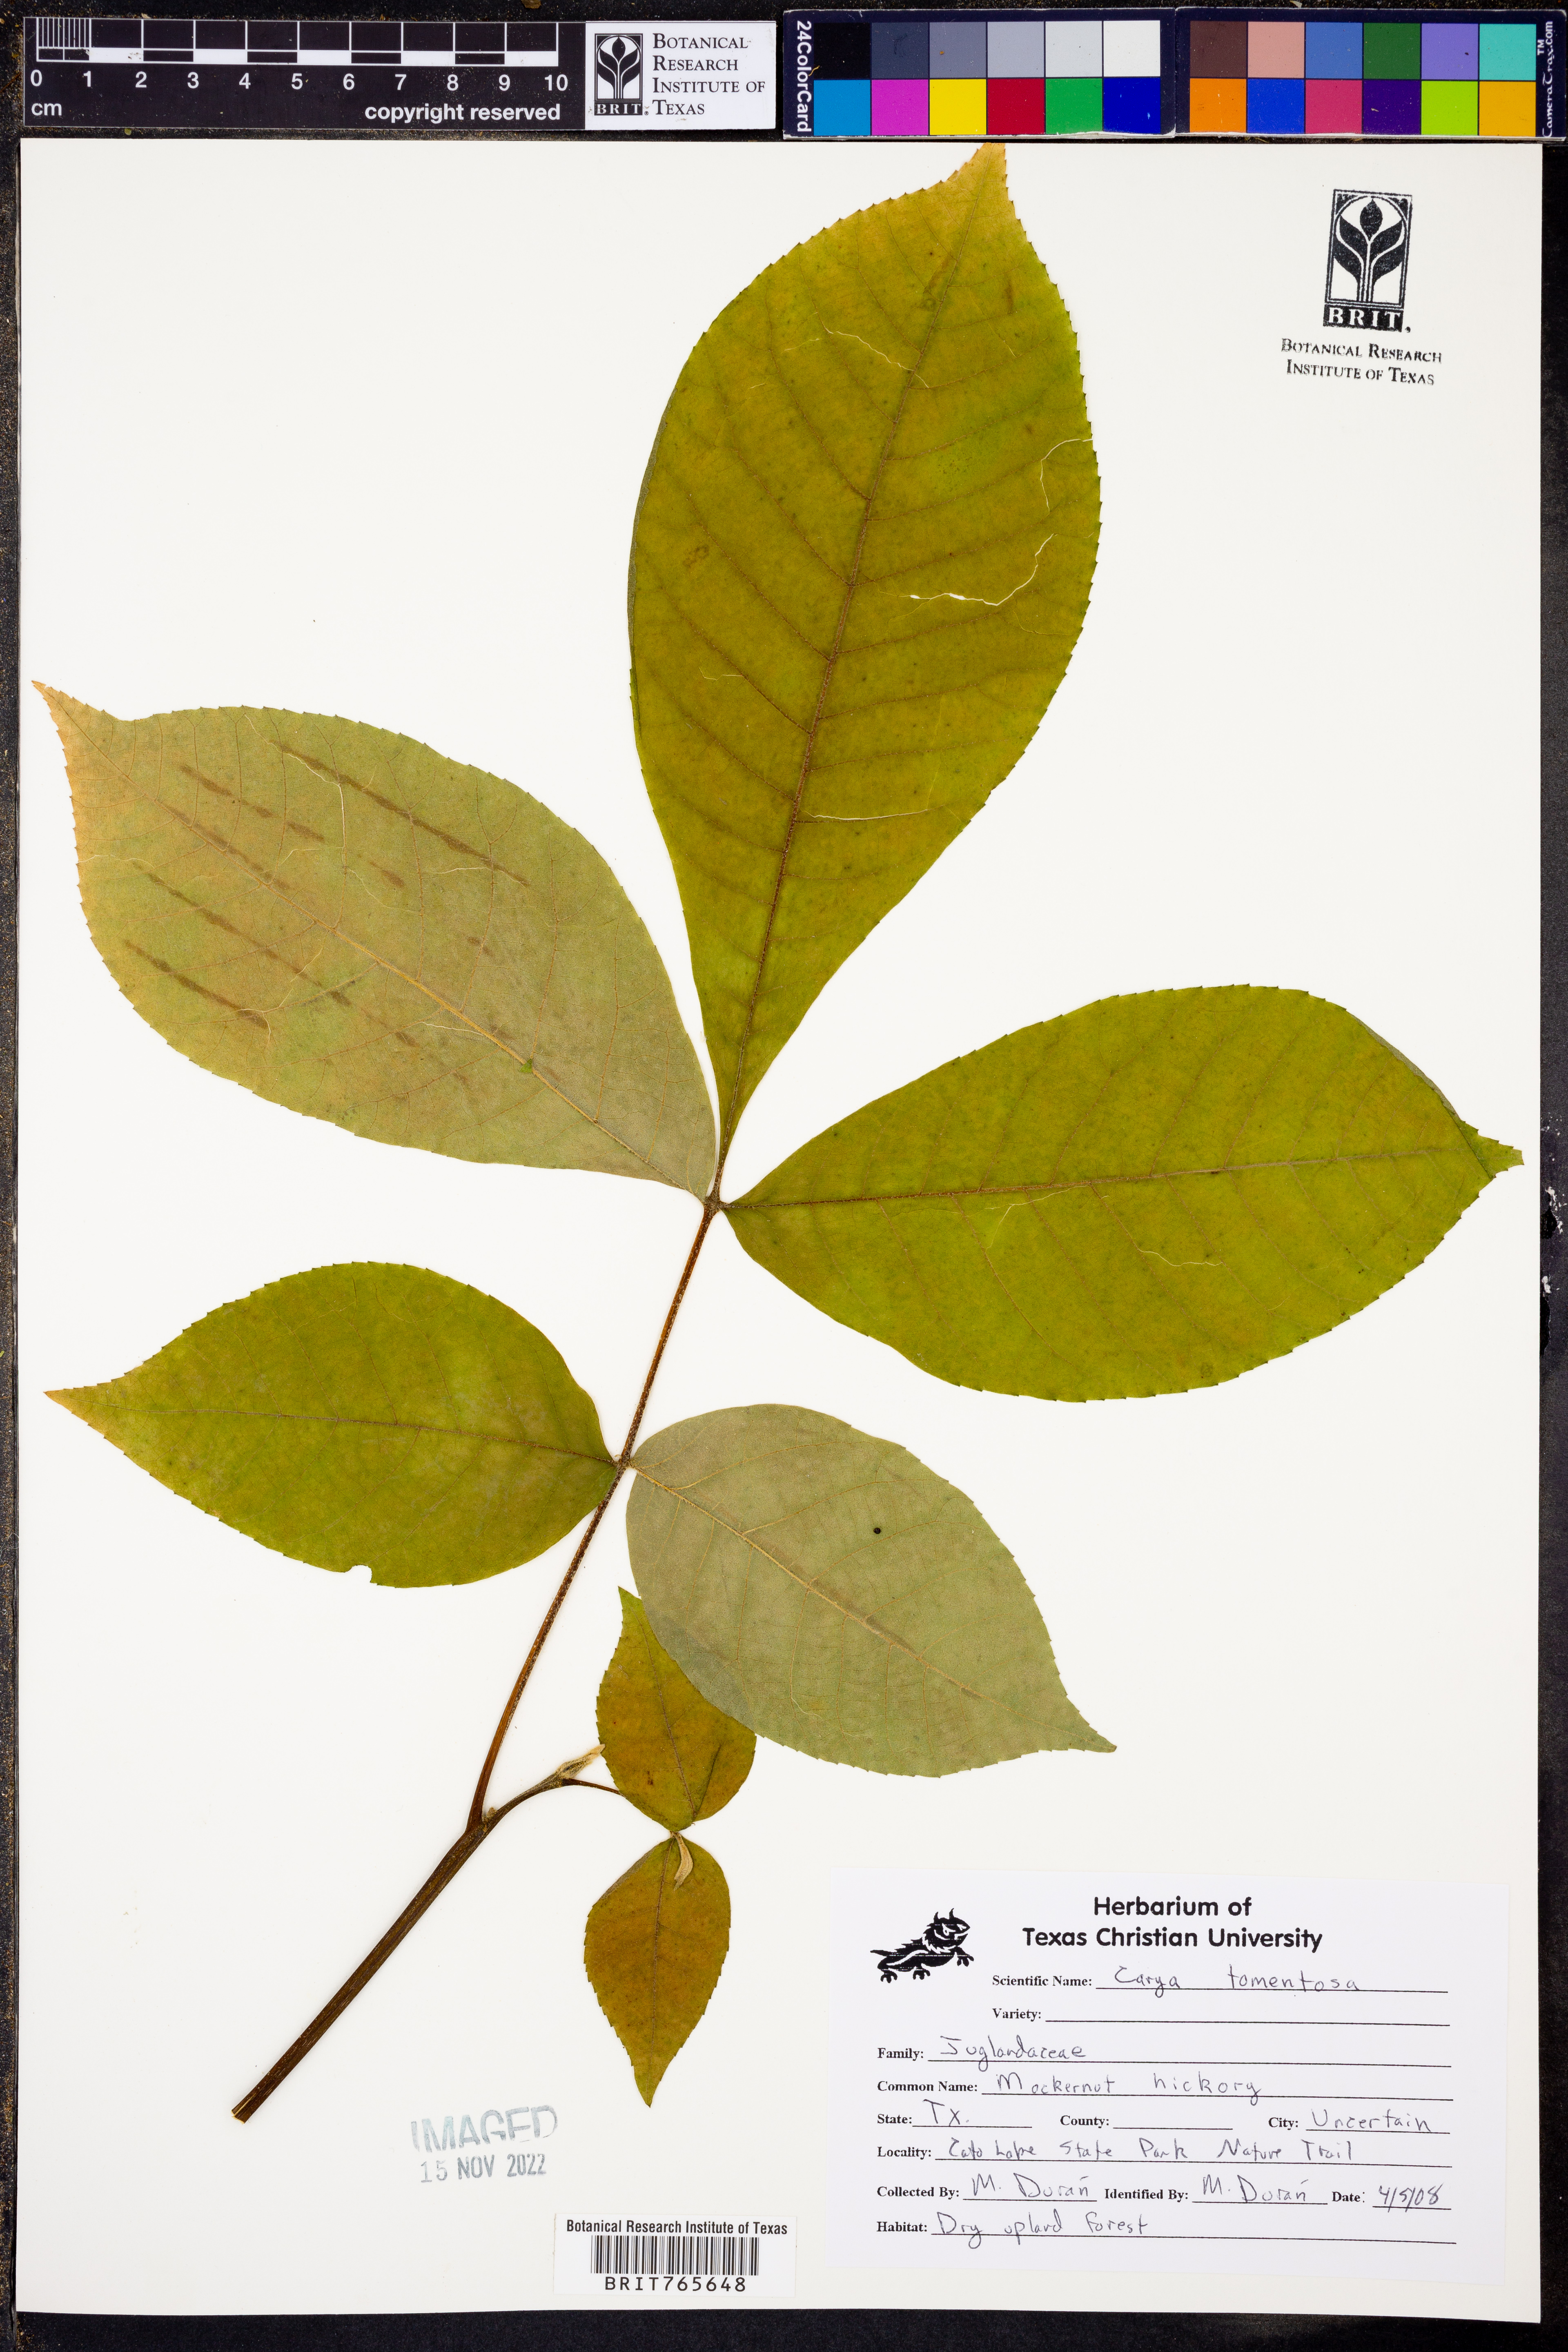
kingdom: Plantae
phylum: Tracheophyta
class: Magnoliopsida
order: Fagales
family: Juglandaceae
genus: Carya
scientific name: Carya alba
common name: Mockernut hickory
